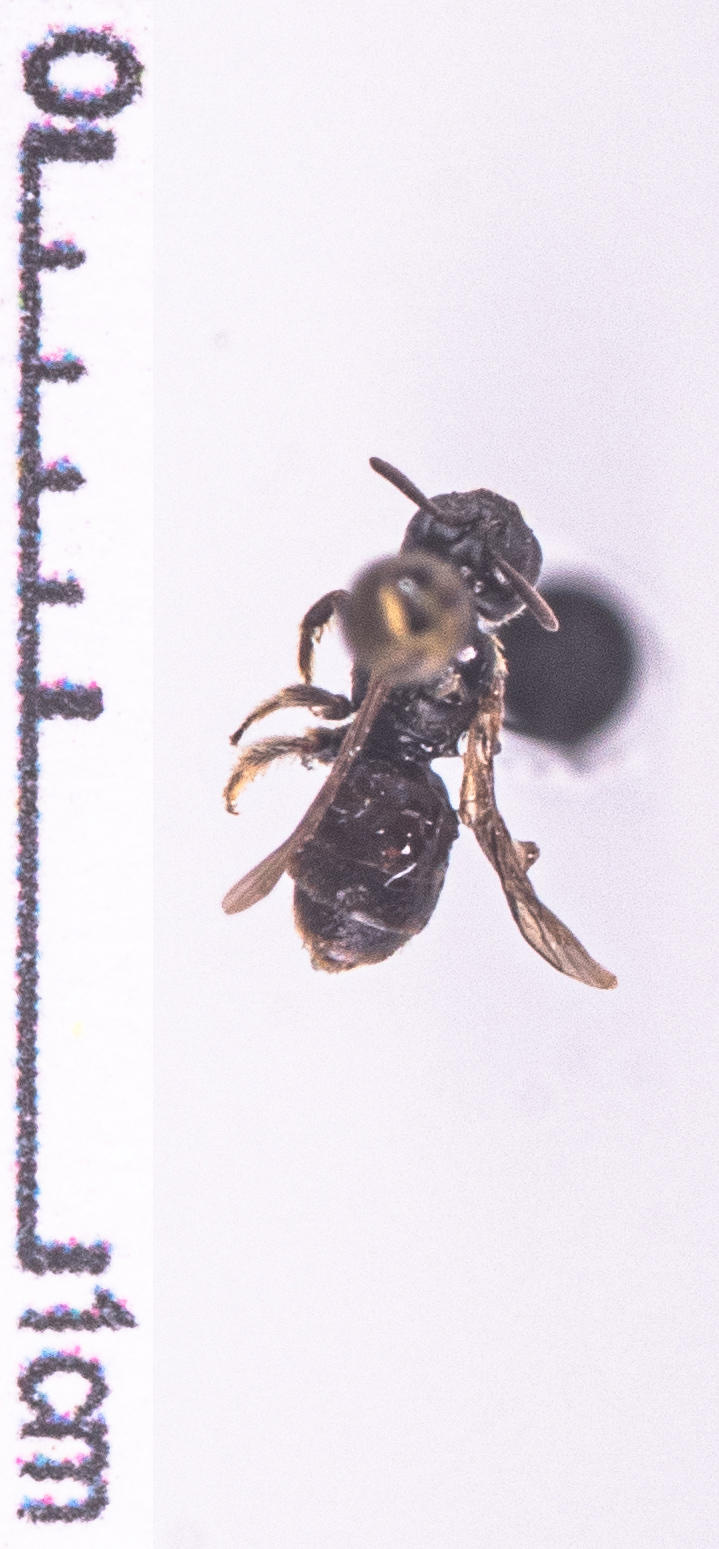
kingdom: Animalia
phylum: Arthropoda
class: Insecta
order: Hymenoptera
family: Halictidae
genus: Lasioglossum
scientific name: Lasioglossum glabriusculum
